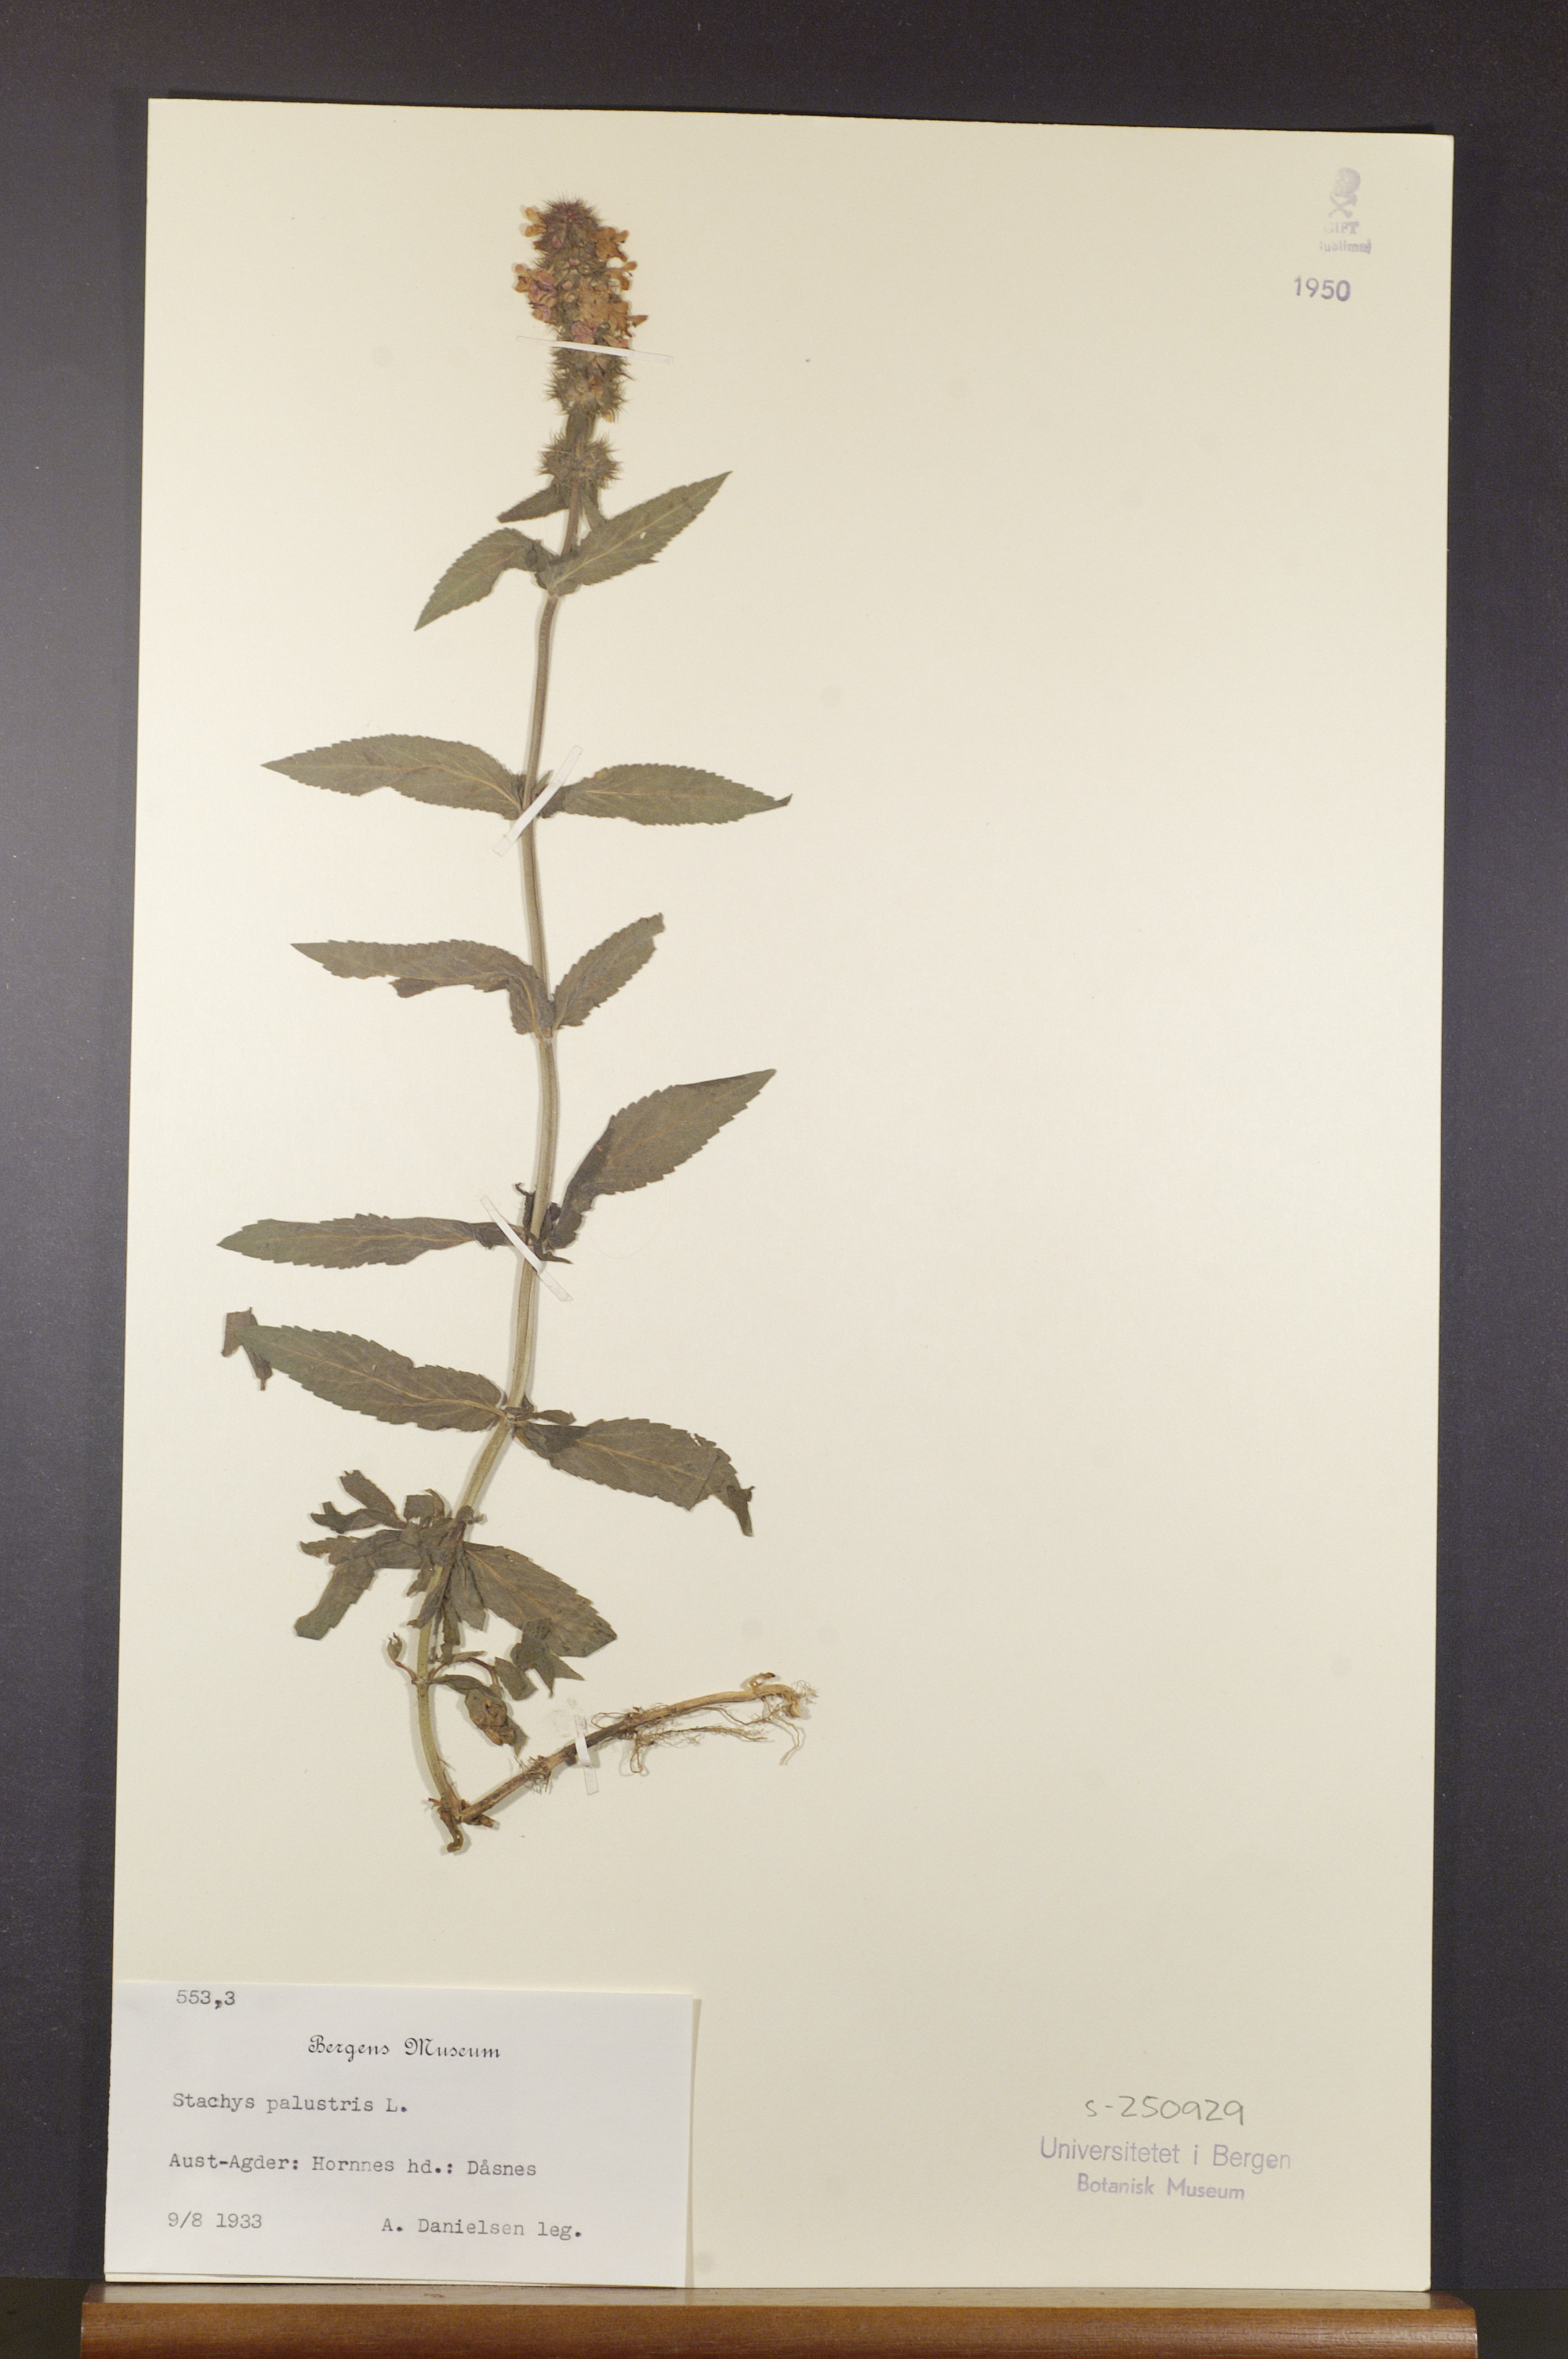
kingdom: Plantae
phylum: Tracheophyta
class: Magnoliopsida
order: Lamiales
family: Lamiaceae
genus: Stachys
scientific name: Stachys palustris
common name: Marsh woundwort
